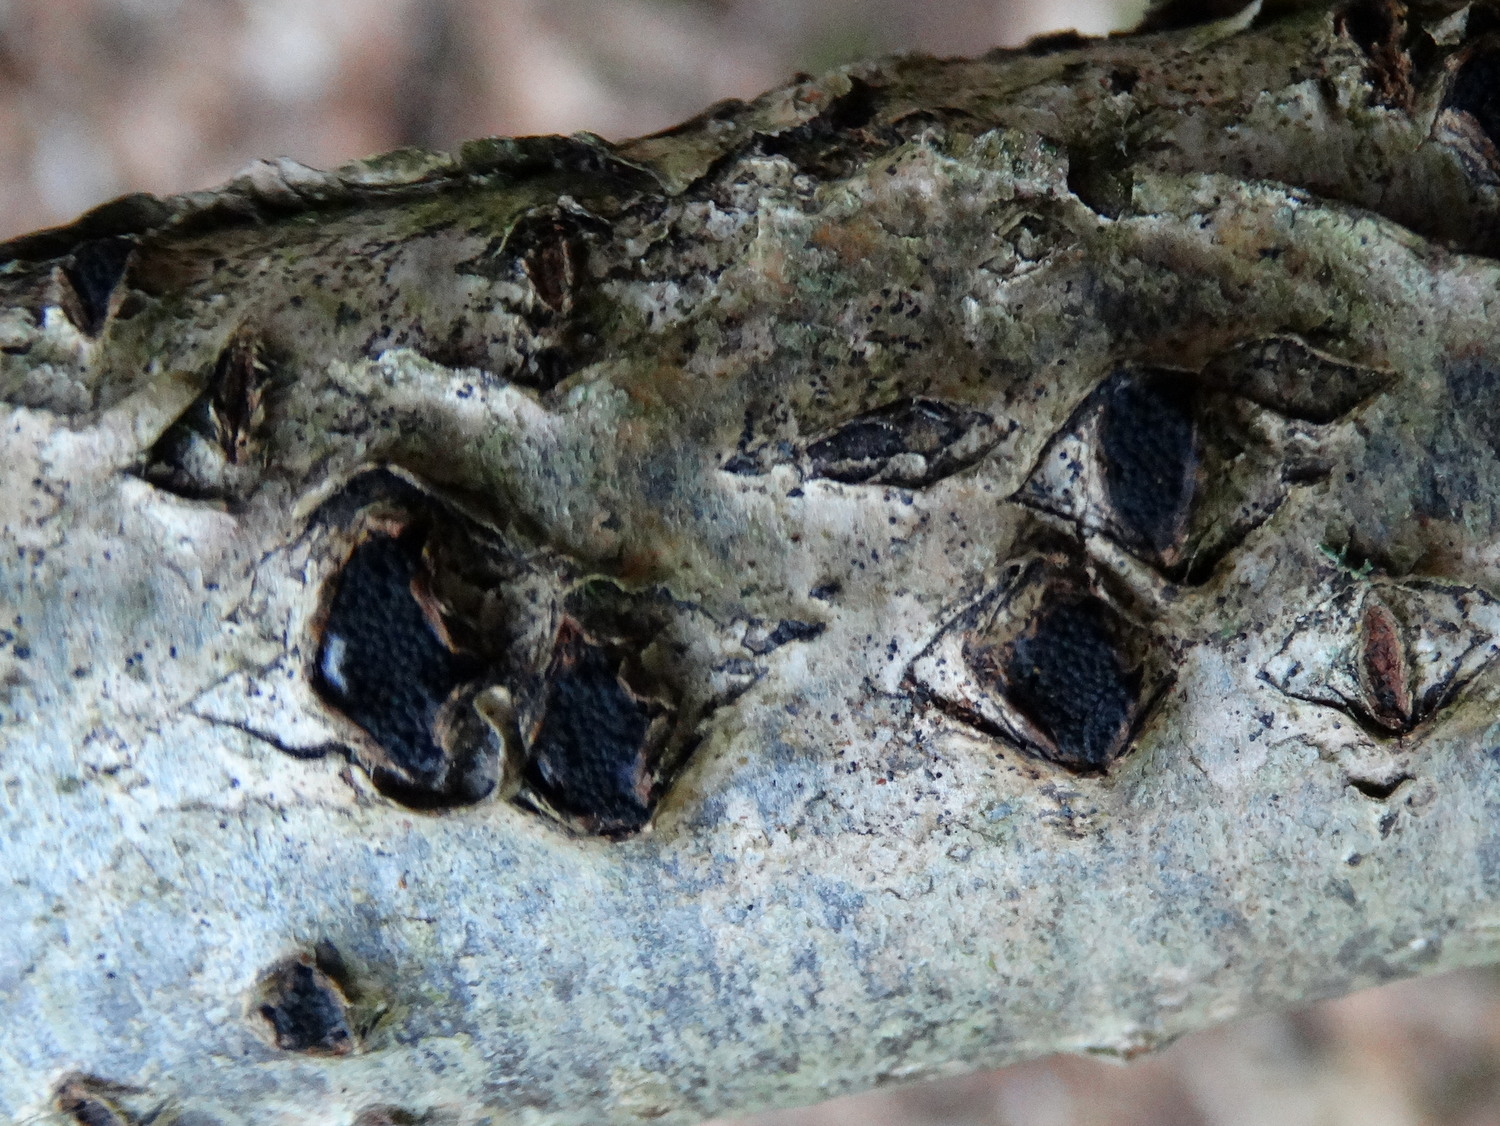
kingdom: Fungi
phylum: Ascomycota
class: Sordariomycetes
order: Xylariales
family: Diatrypaceae
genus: Eutypella
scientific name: Eutypella sorbi
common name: rønne-kulskorpe
